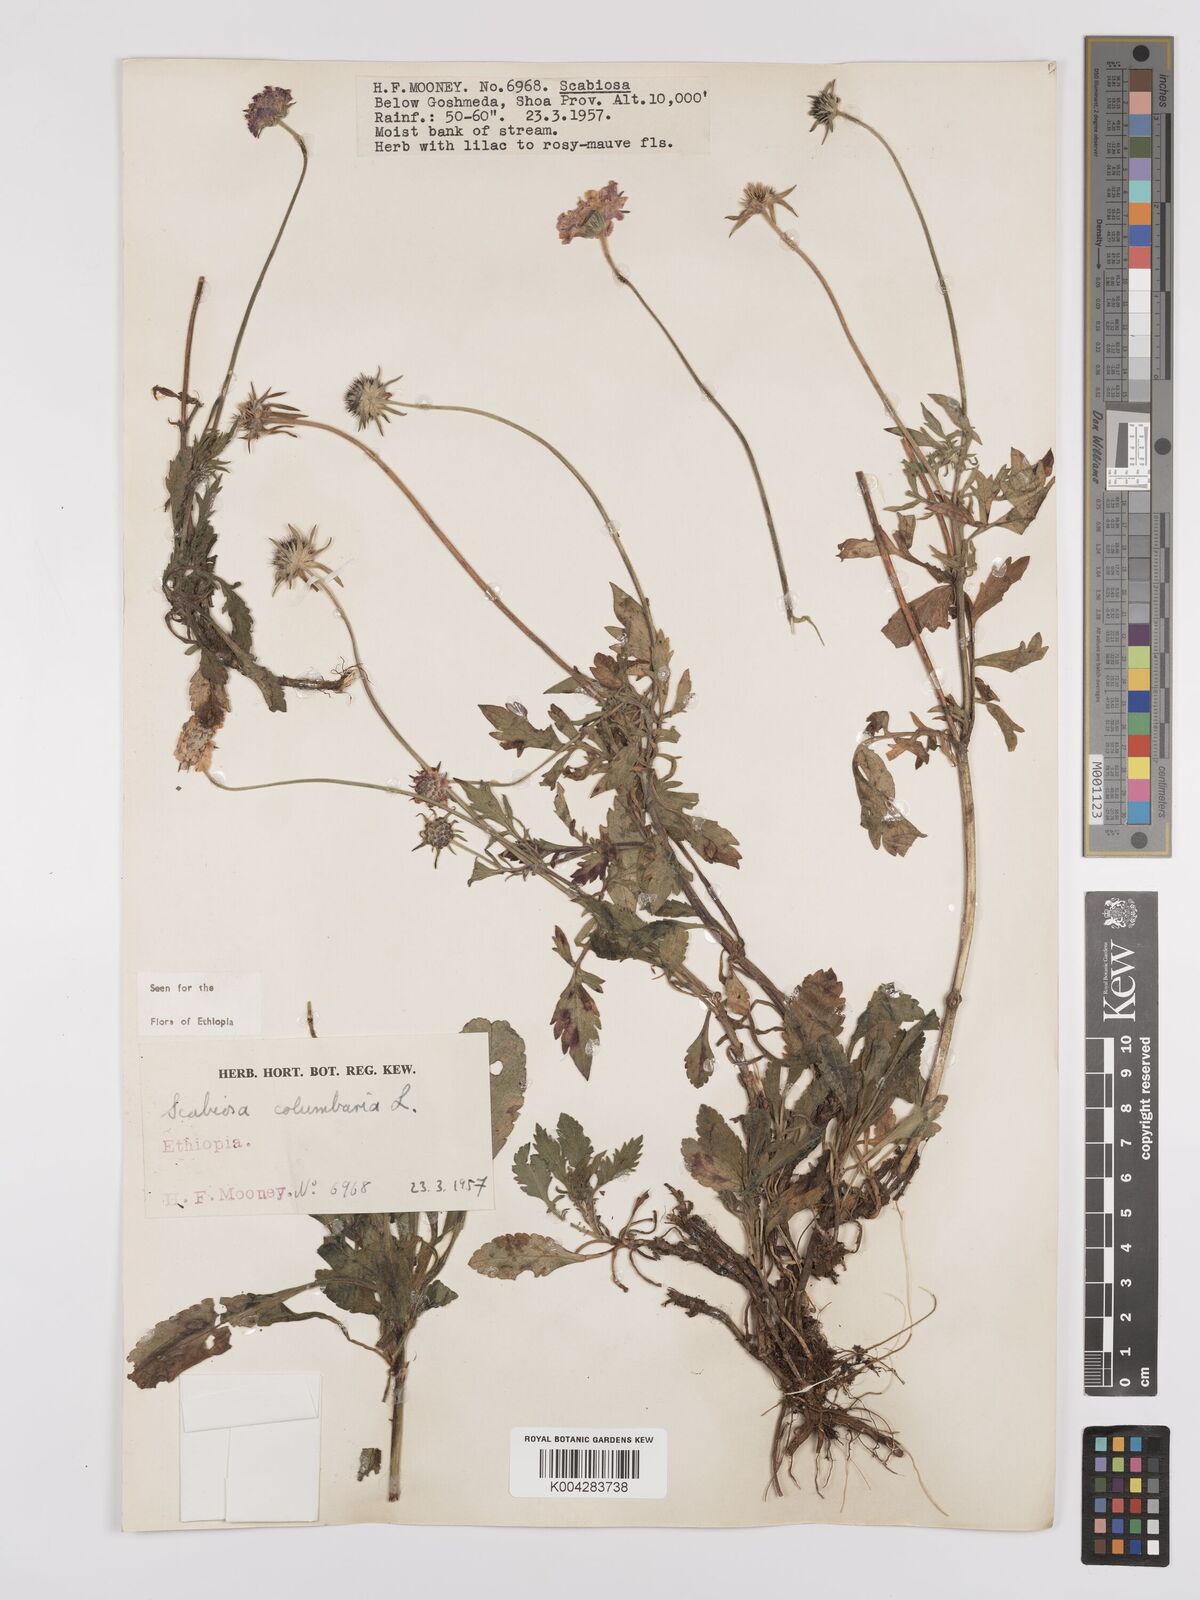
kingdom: Plantae
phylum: Tracheophyta
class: Magnoliopsida
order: Dipsacales
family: Caprifoliaceae
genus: Scabiosa
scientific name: Scabiosa columbaria
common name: Small scabious
